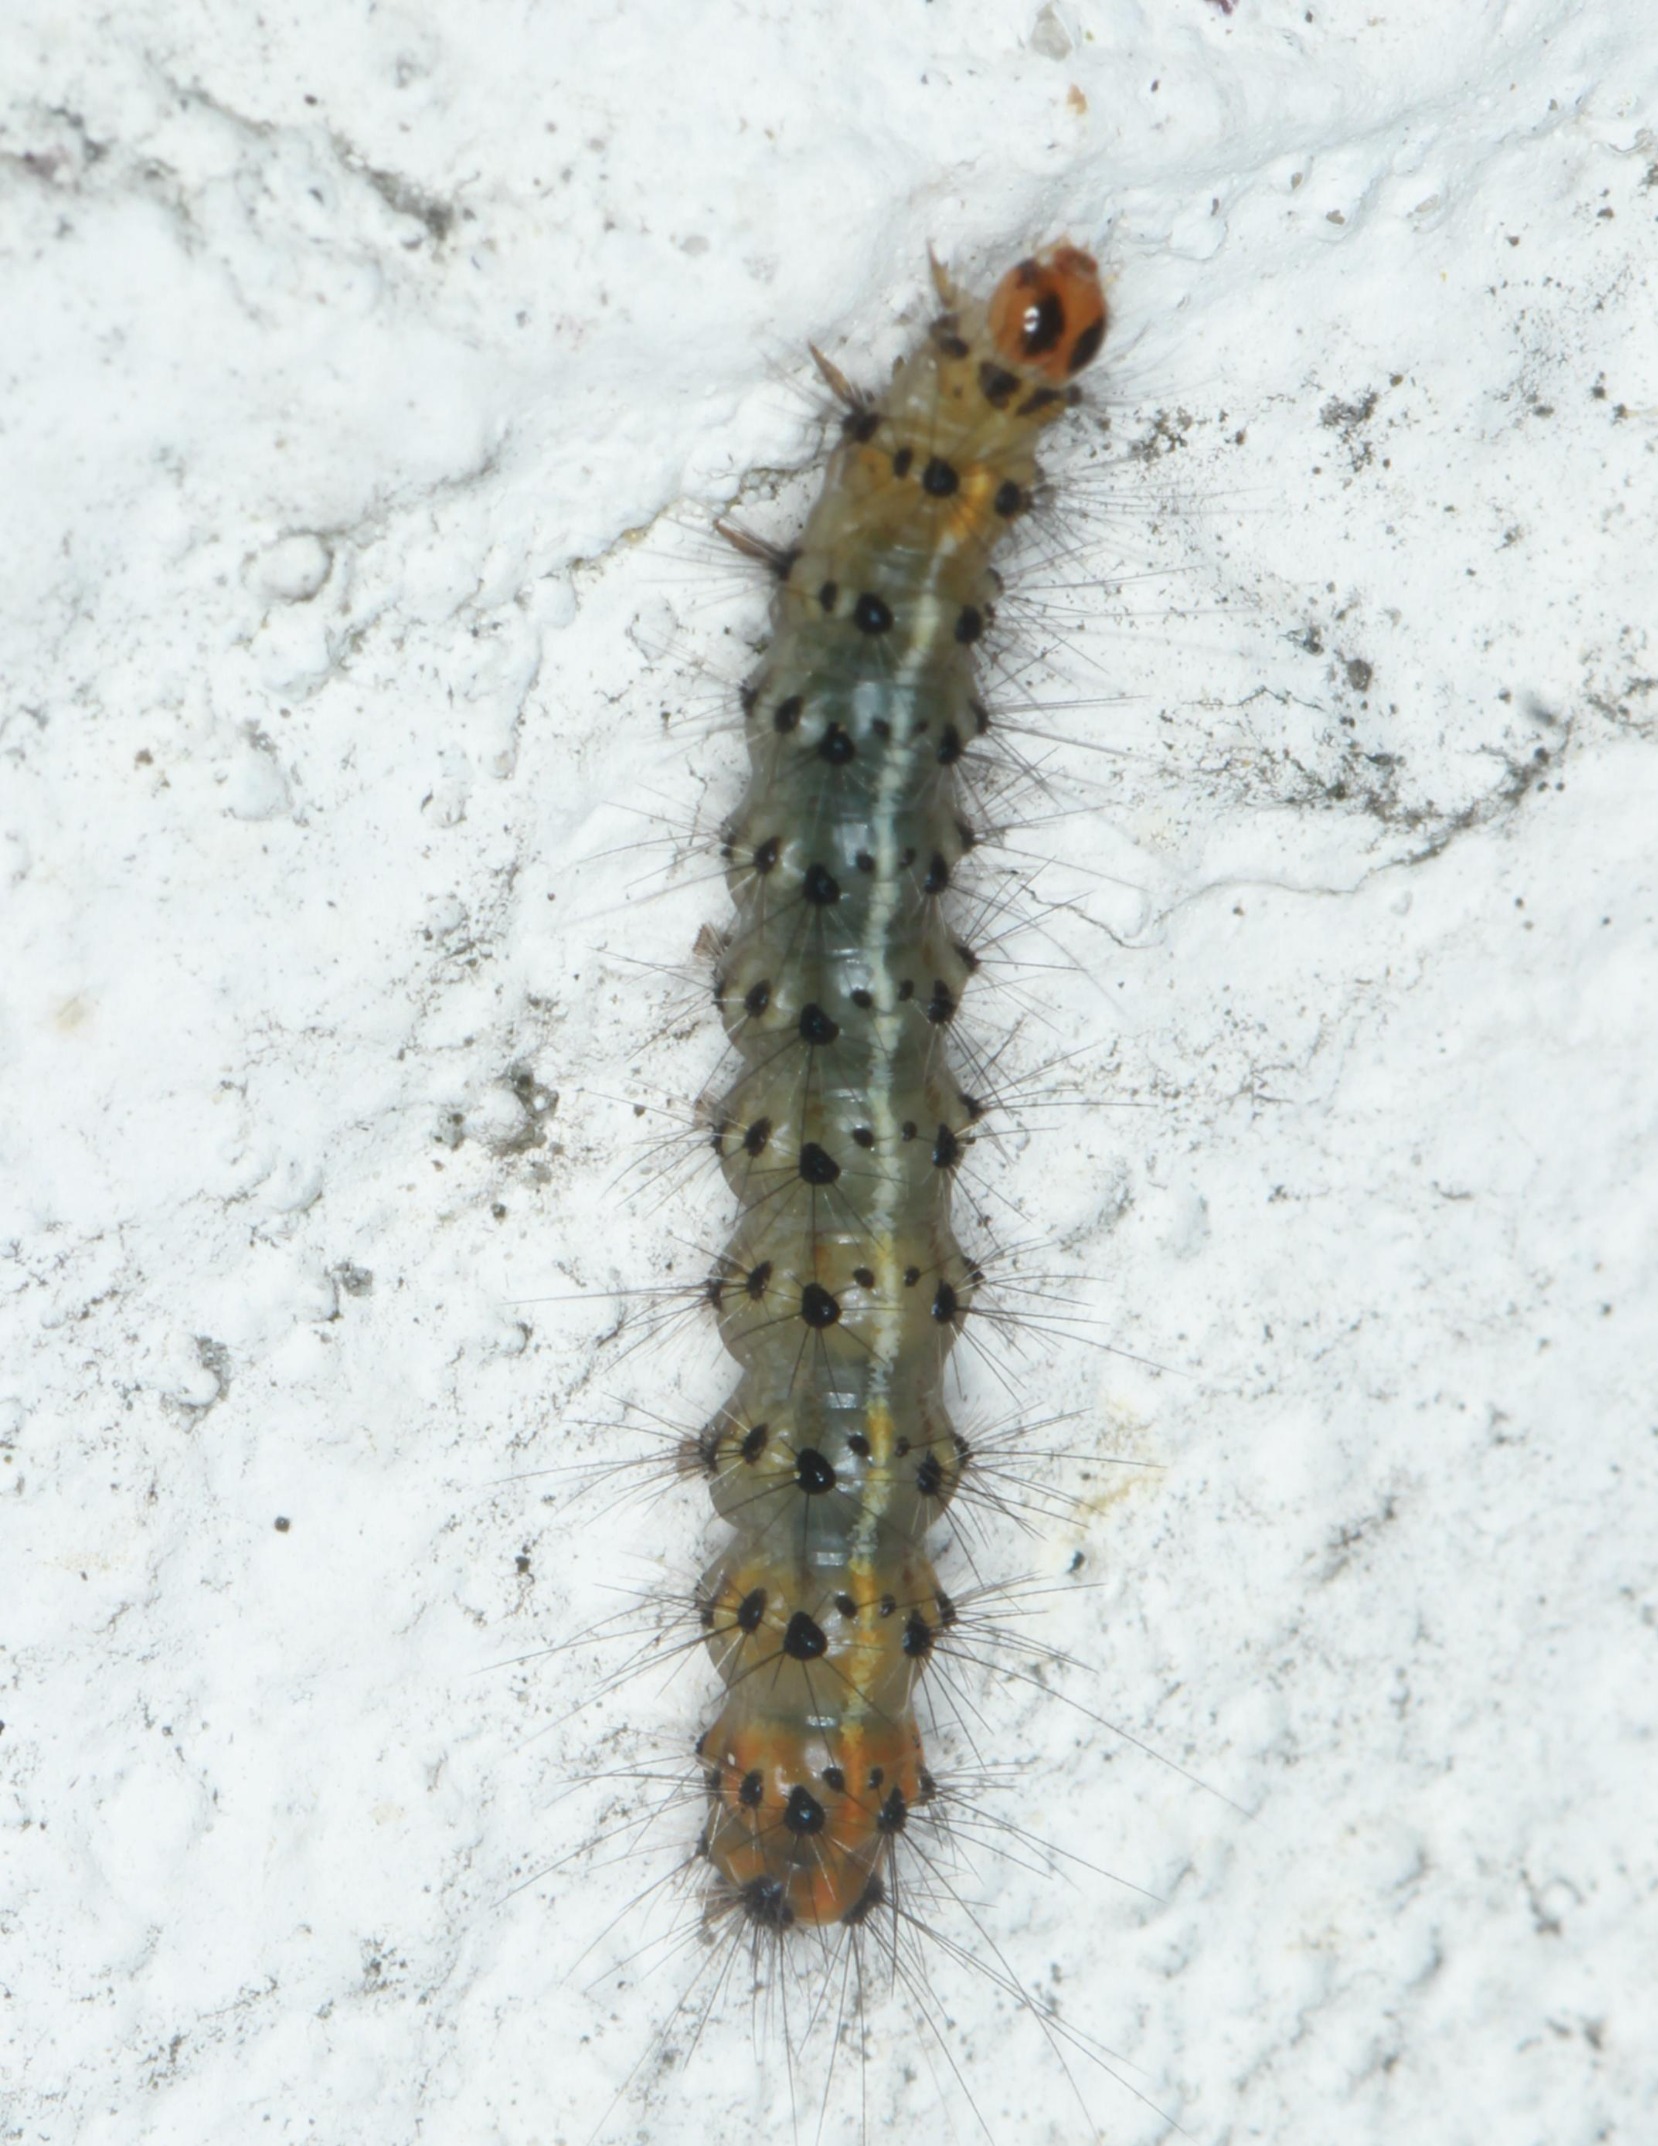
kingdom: Animalia
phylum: Arthropoda
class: Insecta
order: Lepidoptera
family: Erebidae
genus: Spilosoma
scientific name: Spilosoma lubricipeda
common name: Almindelig tigerspinder
